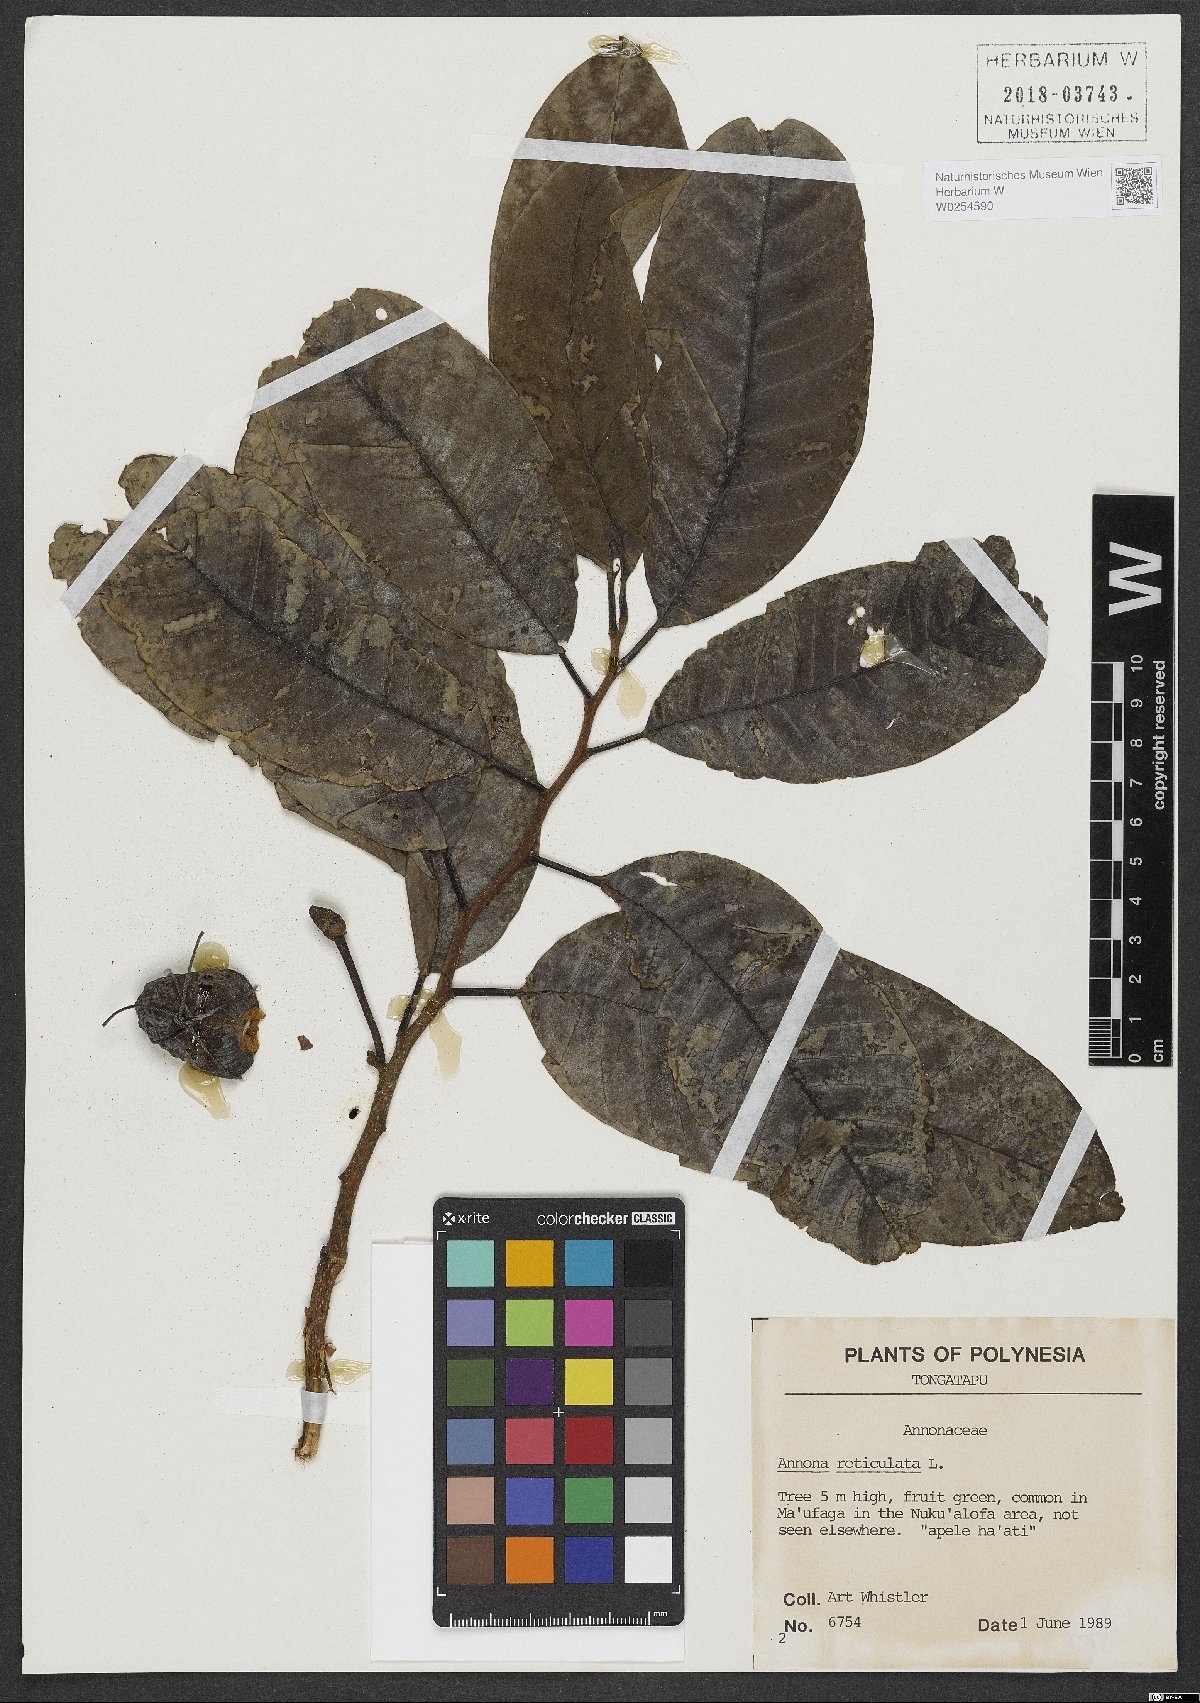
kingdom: Plantae
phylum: Tracheophyta
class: Magnoliopsida
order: Magnoliales
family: Annonaceae
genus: Annona
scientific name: Annona reticulata
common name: Custard apple
